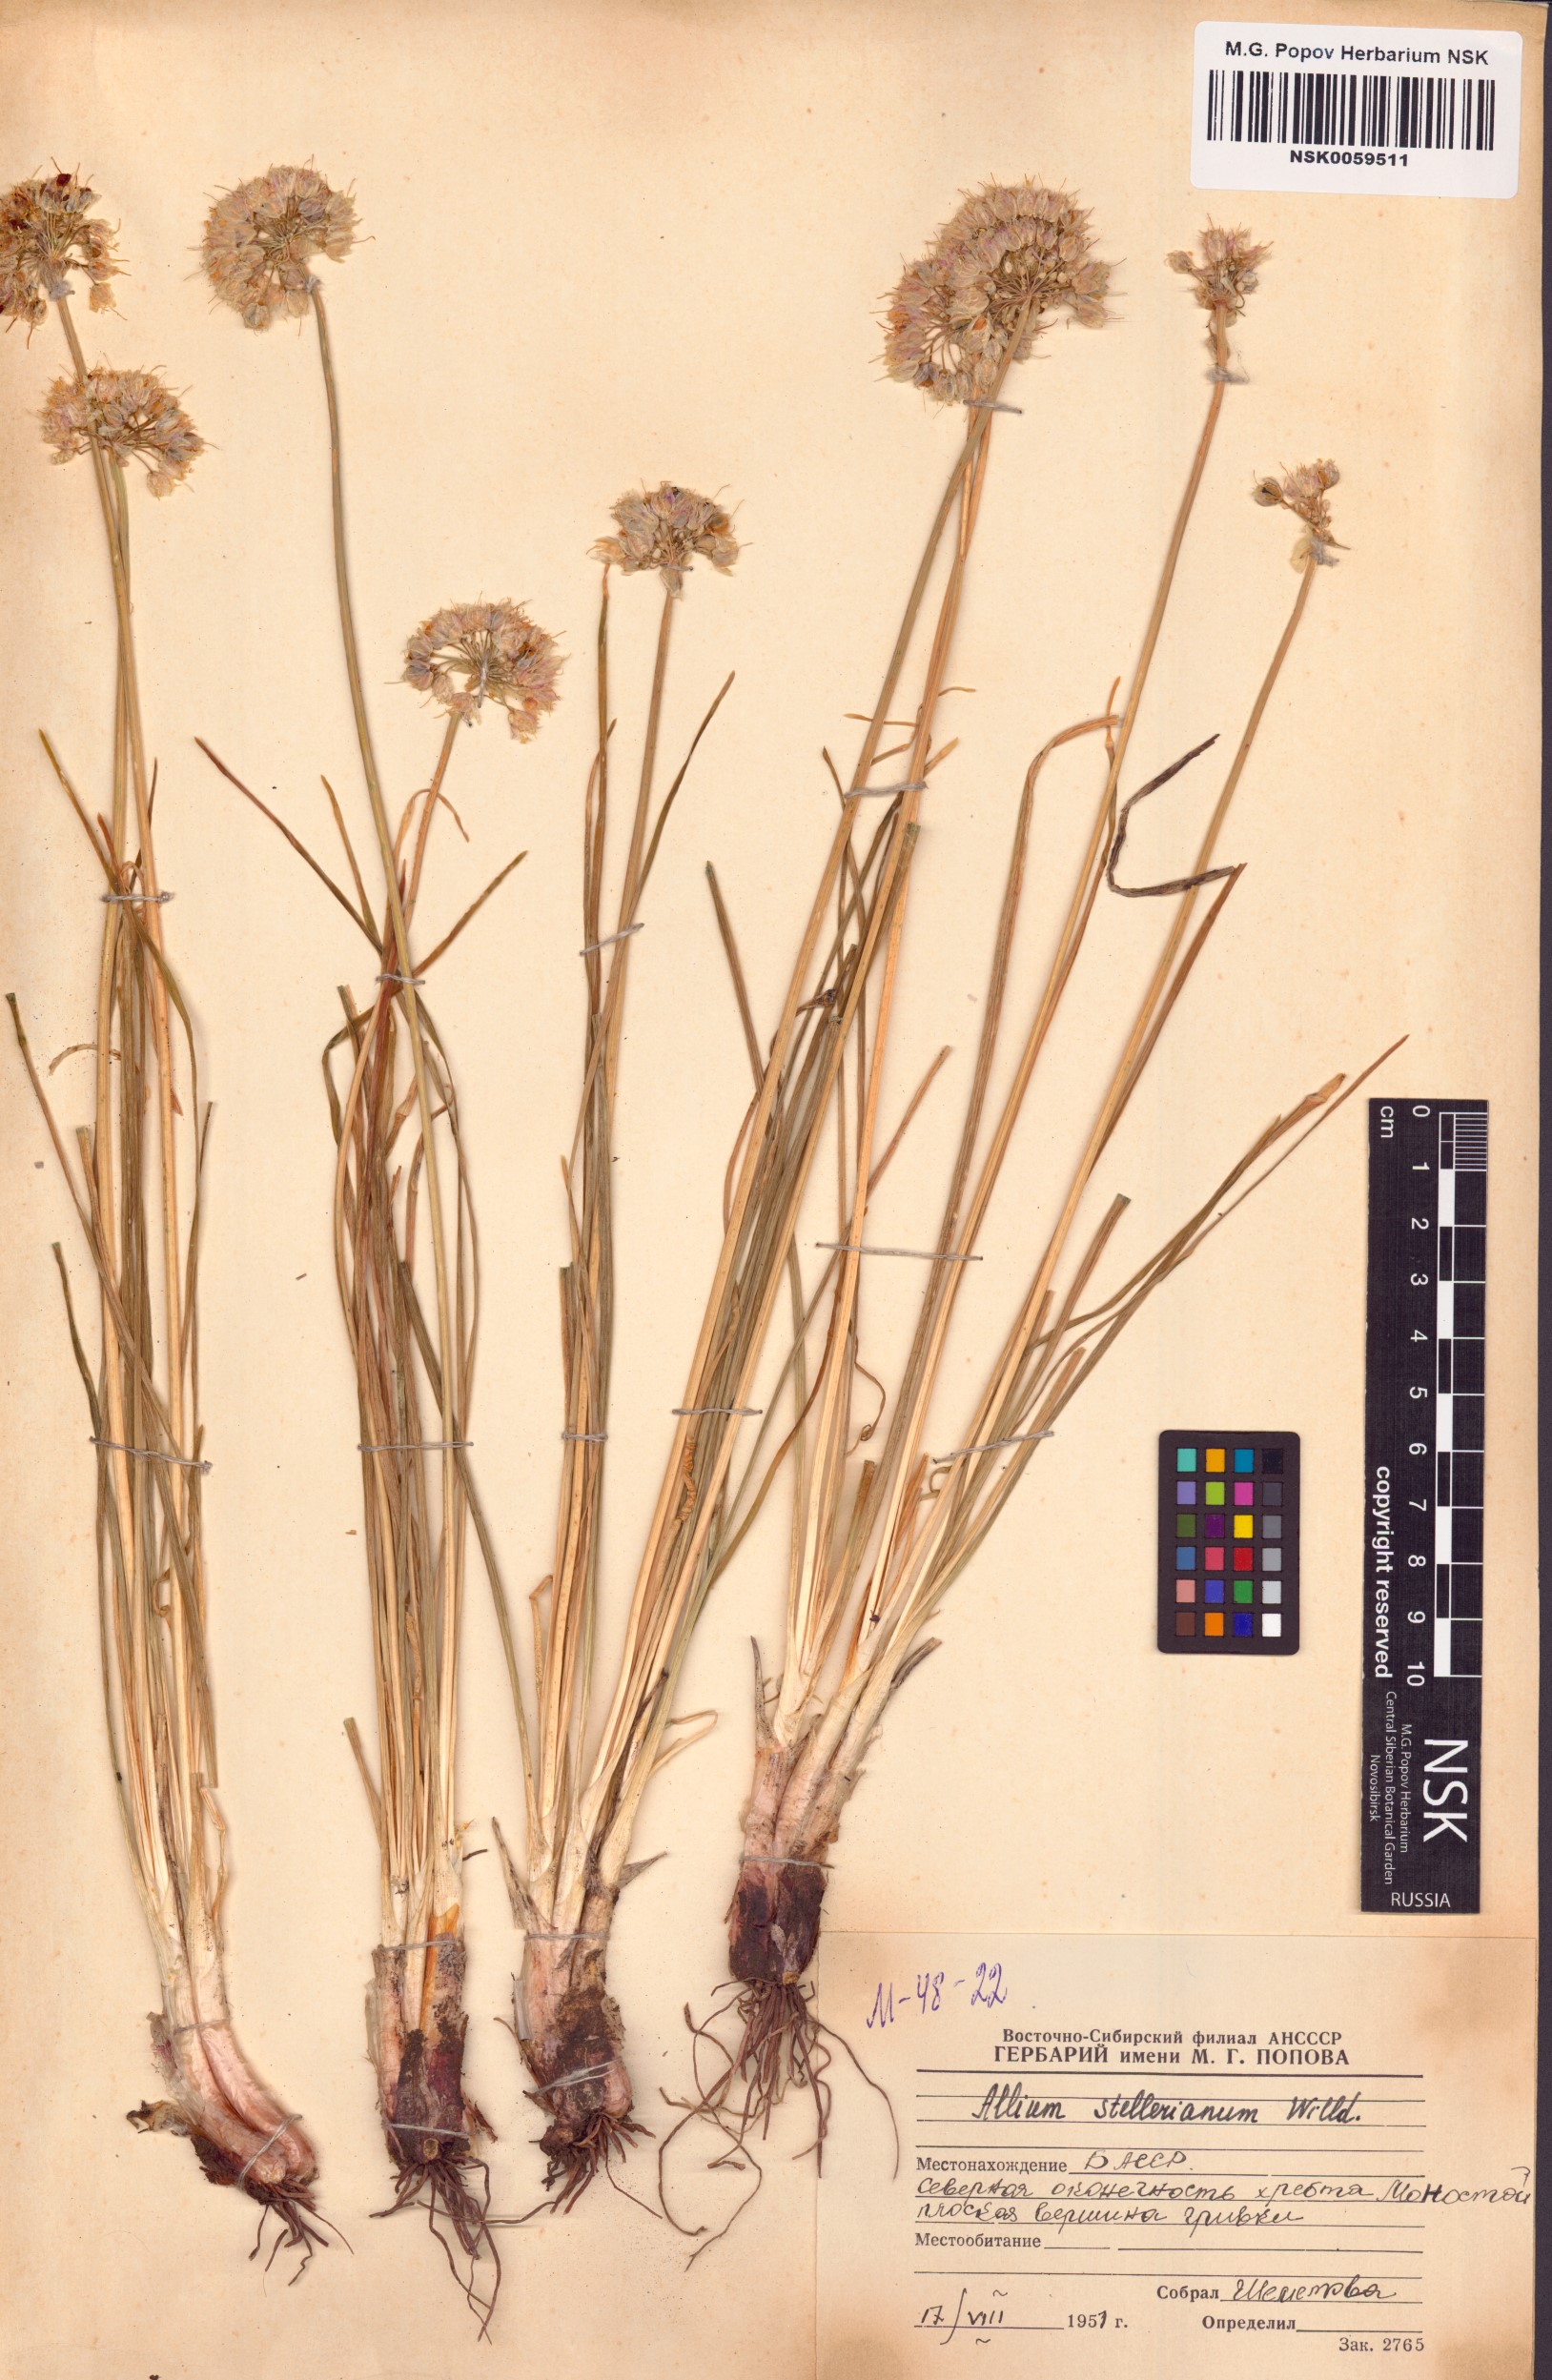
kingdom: Plantae
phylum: Tracheophyta
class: Liliopsida
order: Asparagales
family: Amaryllidaceae
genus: Allium
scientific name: Allium stellerianum
